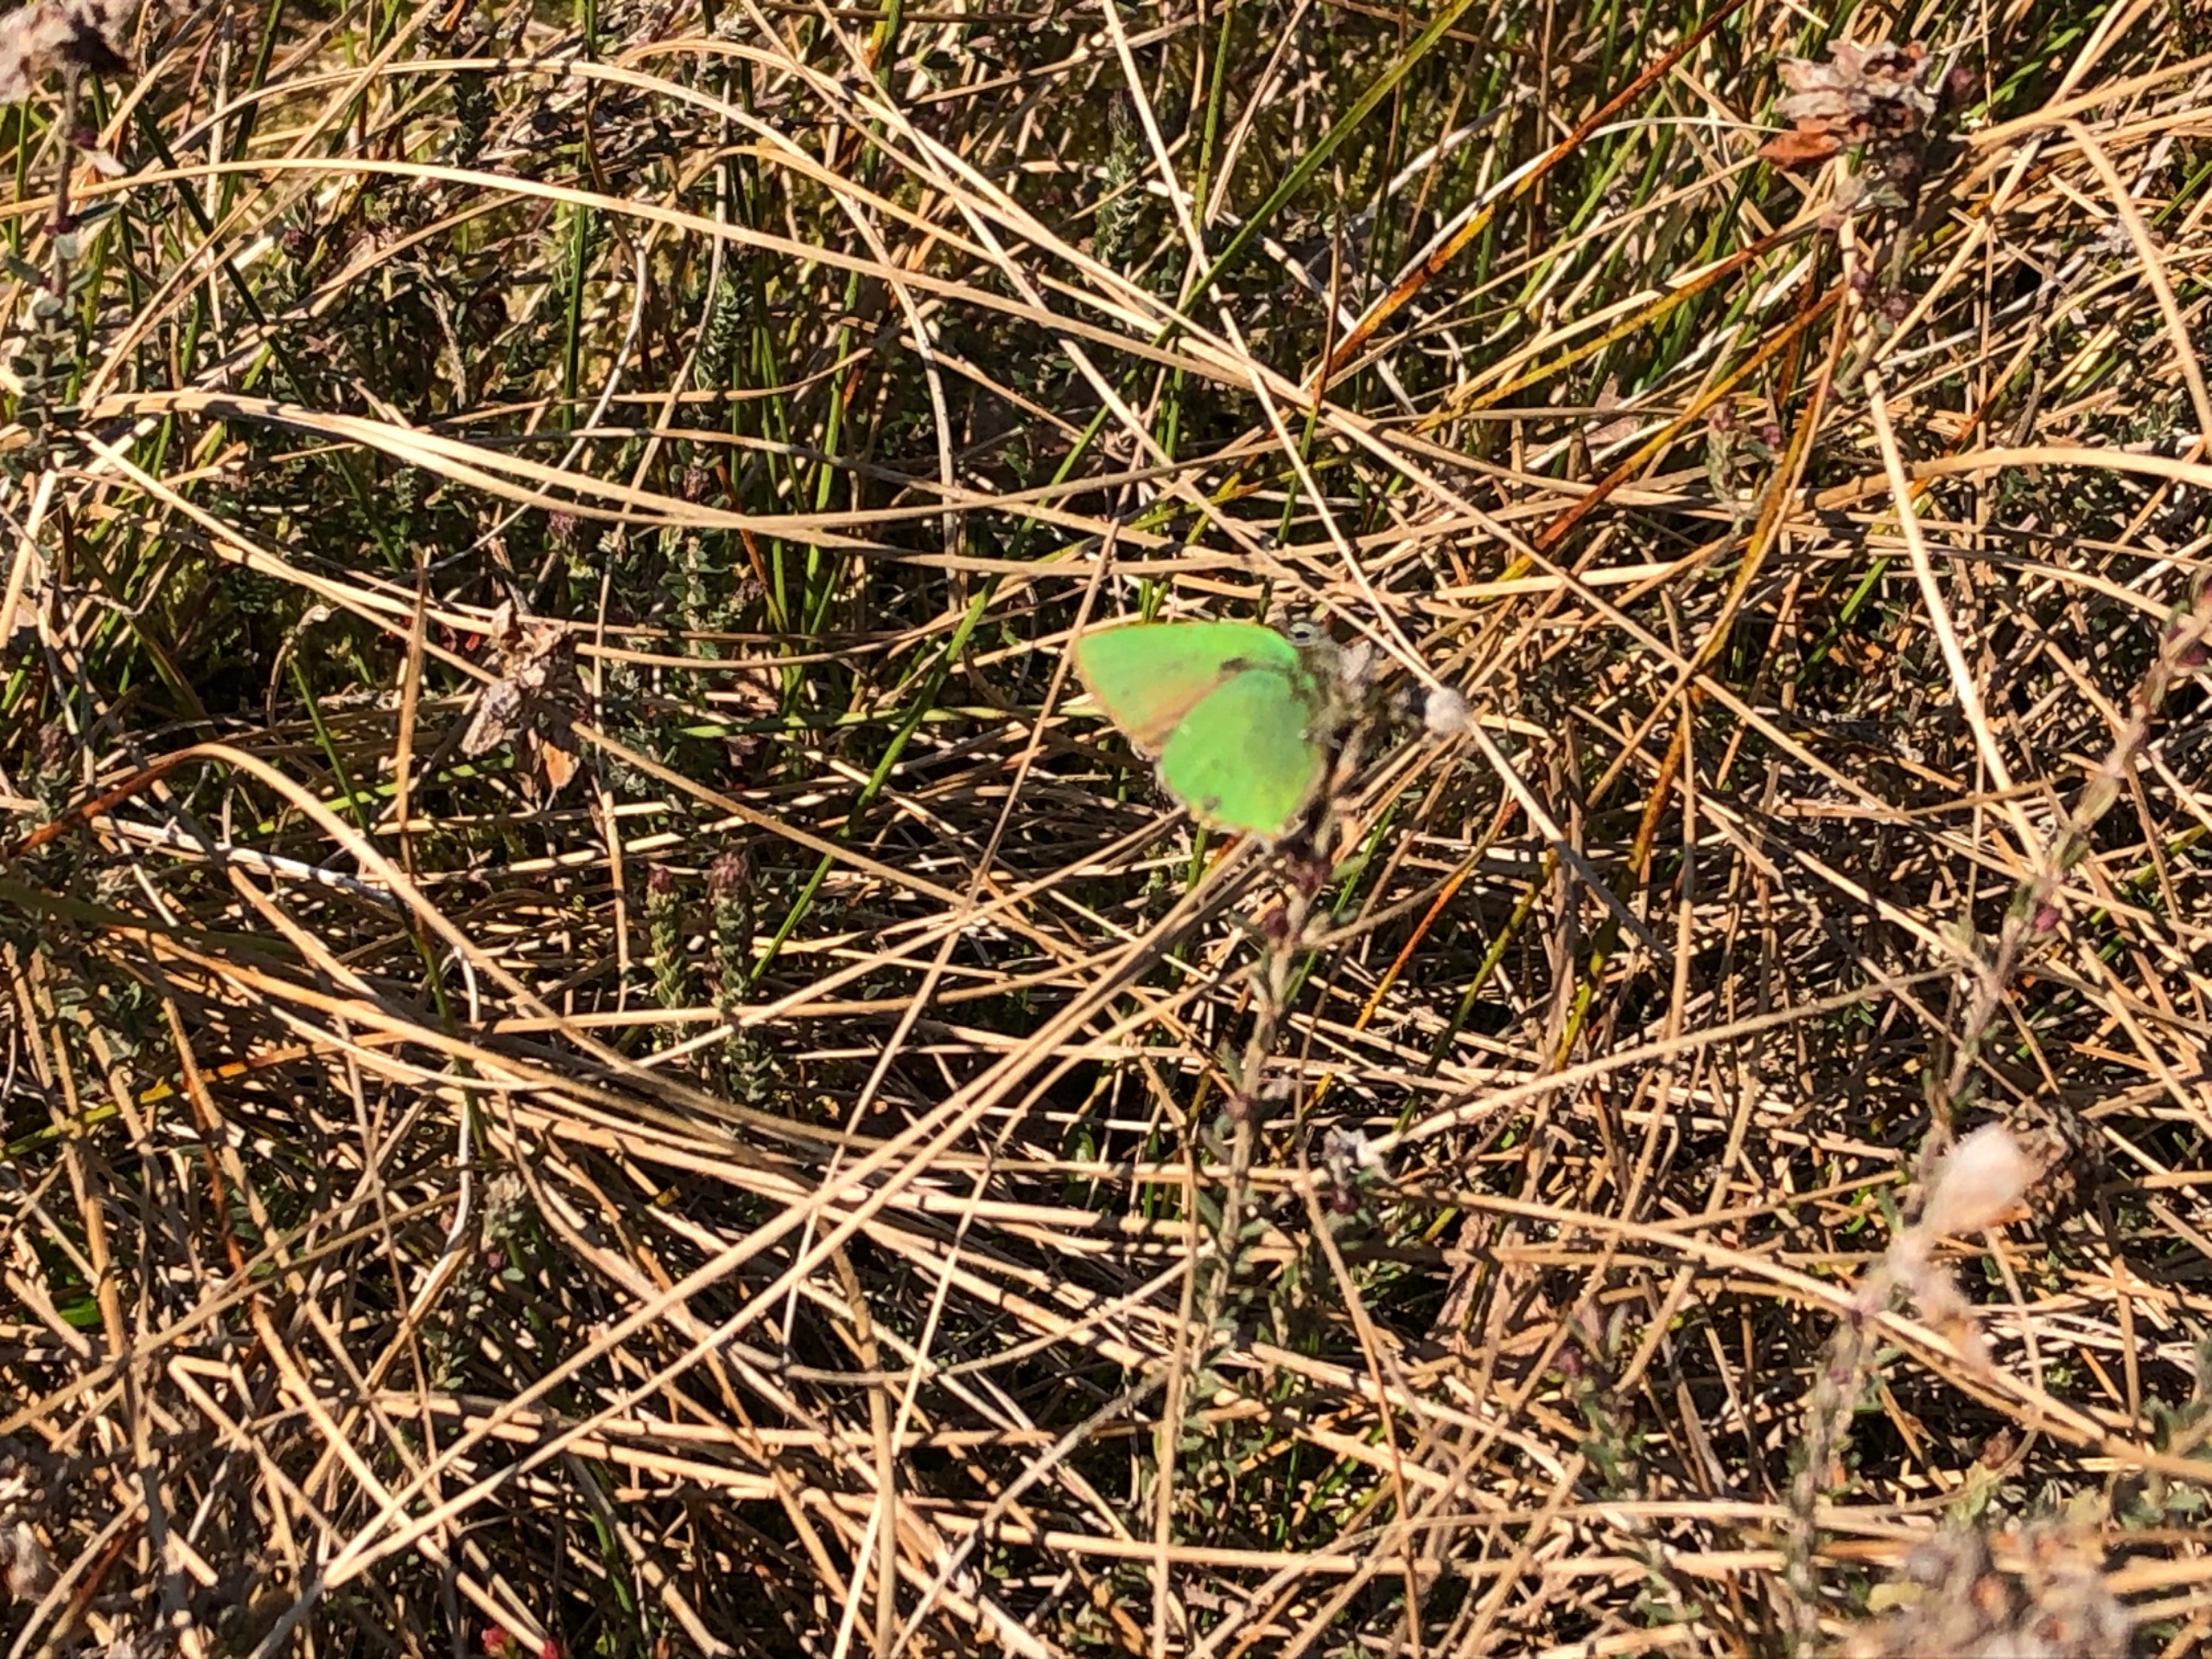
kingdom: Animalia
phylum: Arthropoda
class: Insecta
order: Lepidoptera
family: Lycaenidae
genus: Callophrys
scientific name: Callophrys rubi
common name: Grøn busksommerfugl
